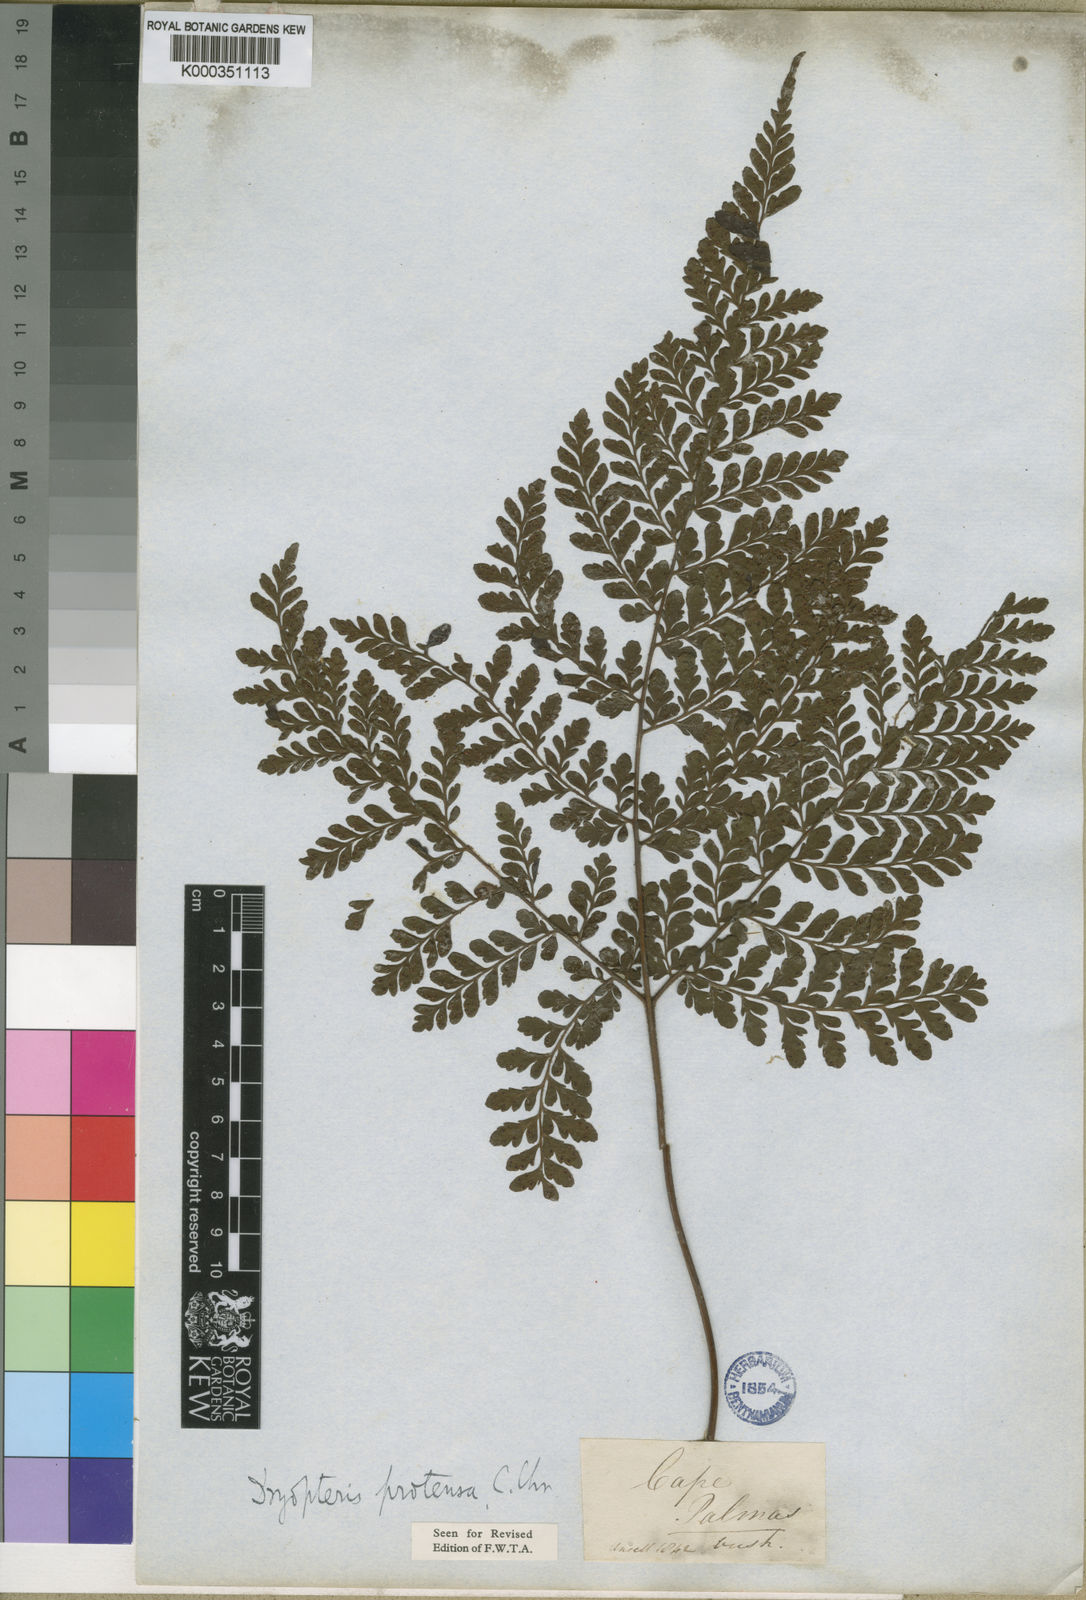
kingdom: Plantae
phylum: Tracheophyta
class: Polypodiopsida
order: Polypodiales
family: Tectariaceae
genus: Triplophyllum
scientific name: Triplophyllum pilosissimum
